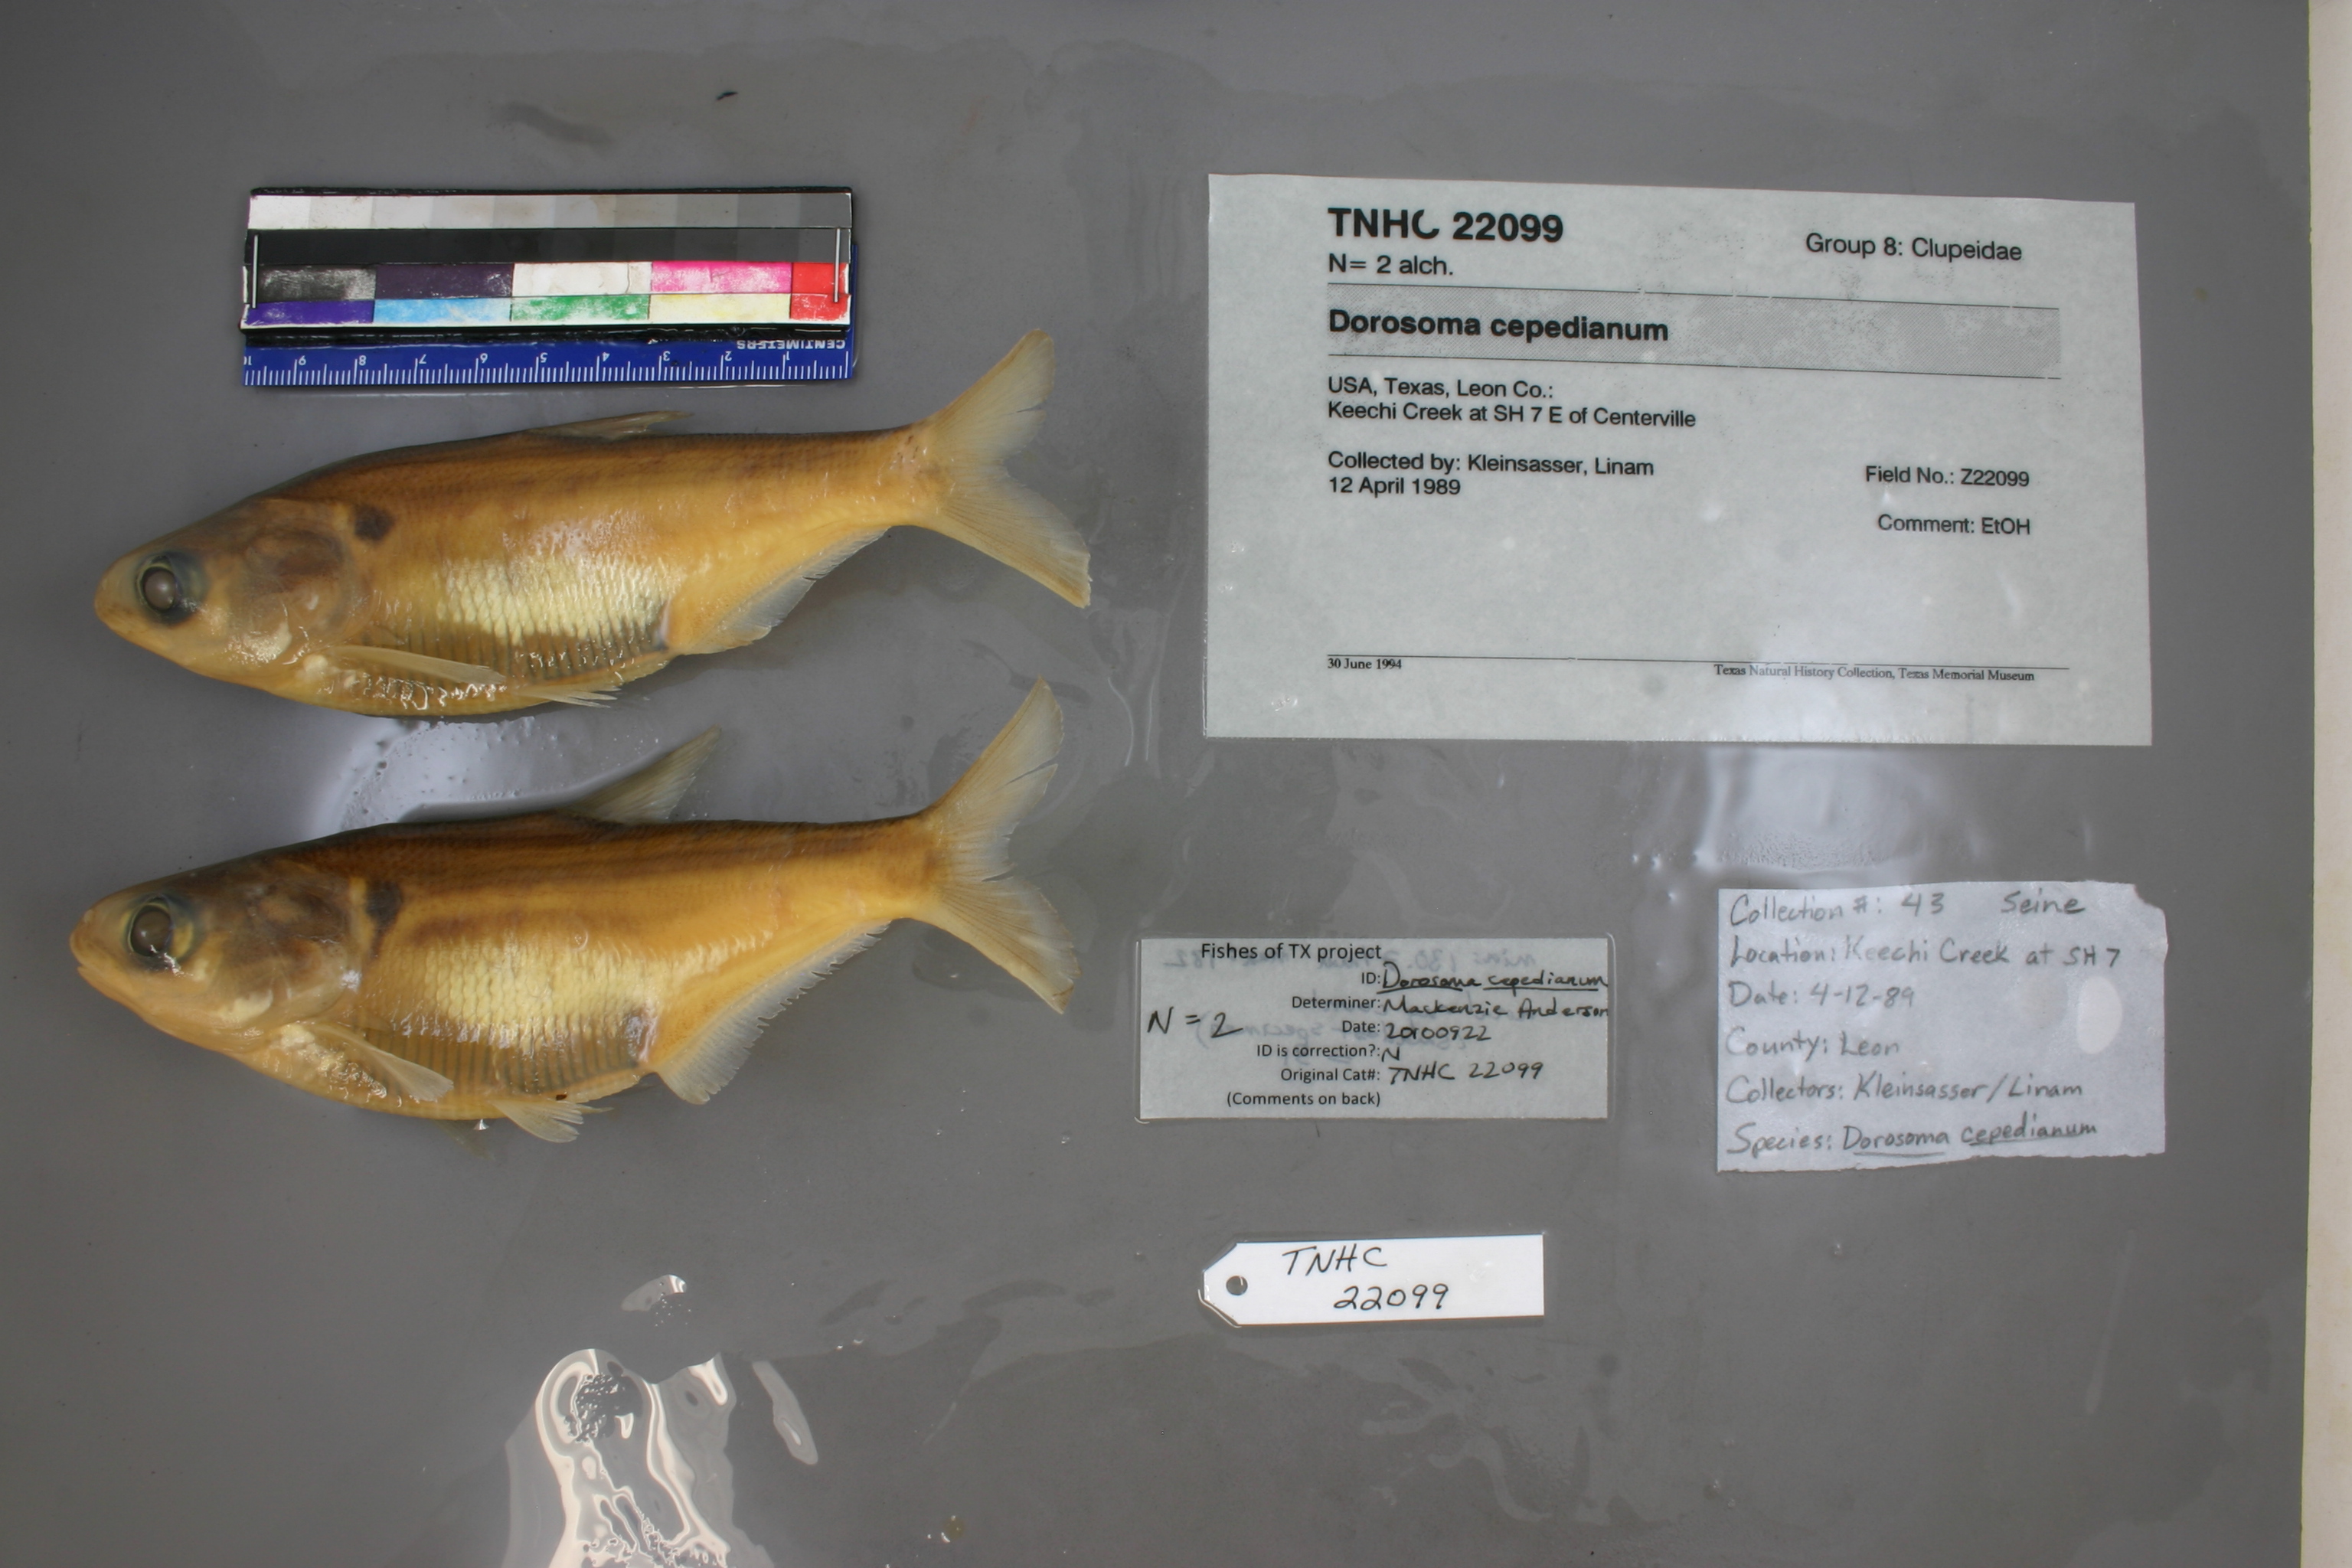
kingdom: Animalia
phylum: Chordata
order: Clupeiformes
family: Clupeidae
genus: Dorosoma
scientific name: Dorosoma cepedianum
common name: Gizzard shad
